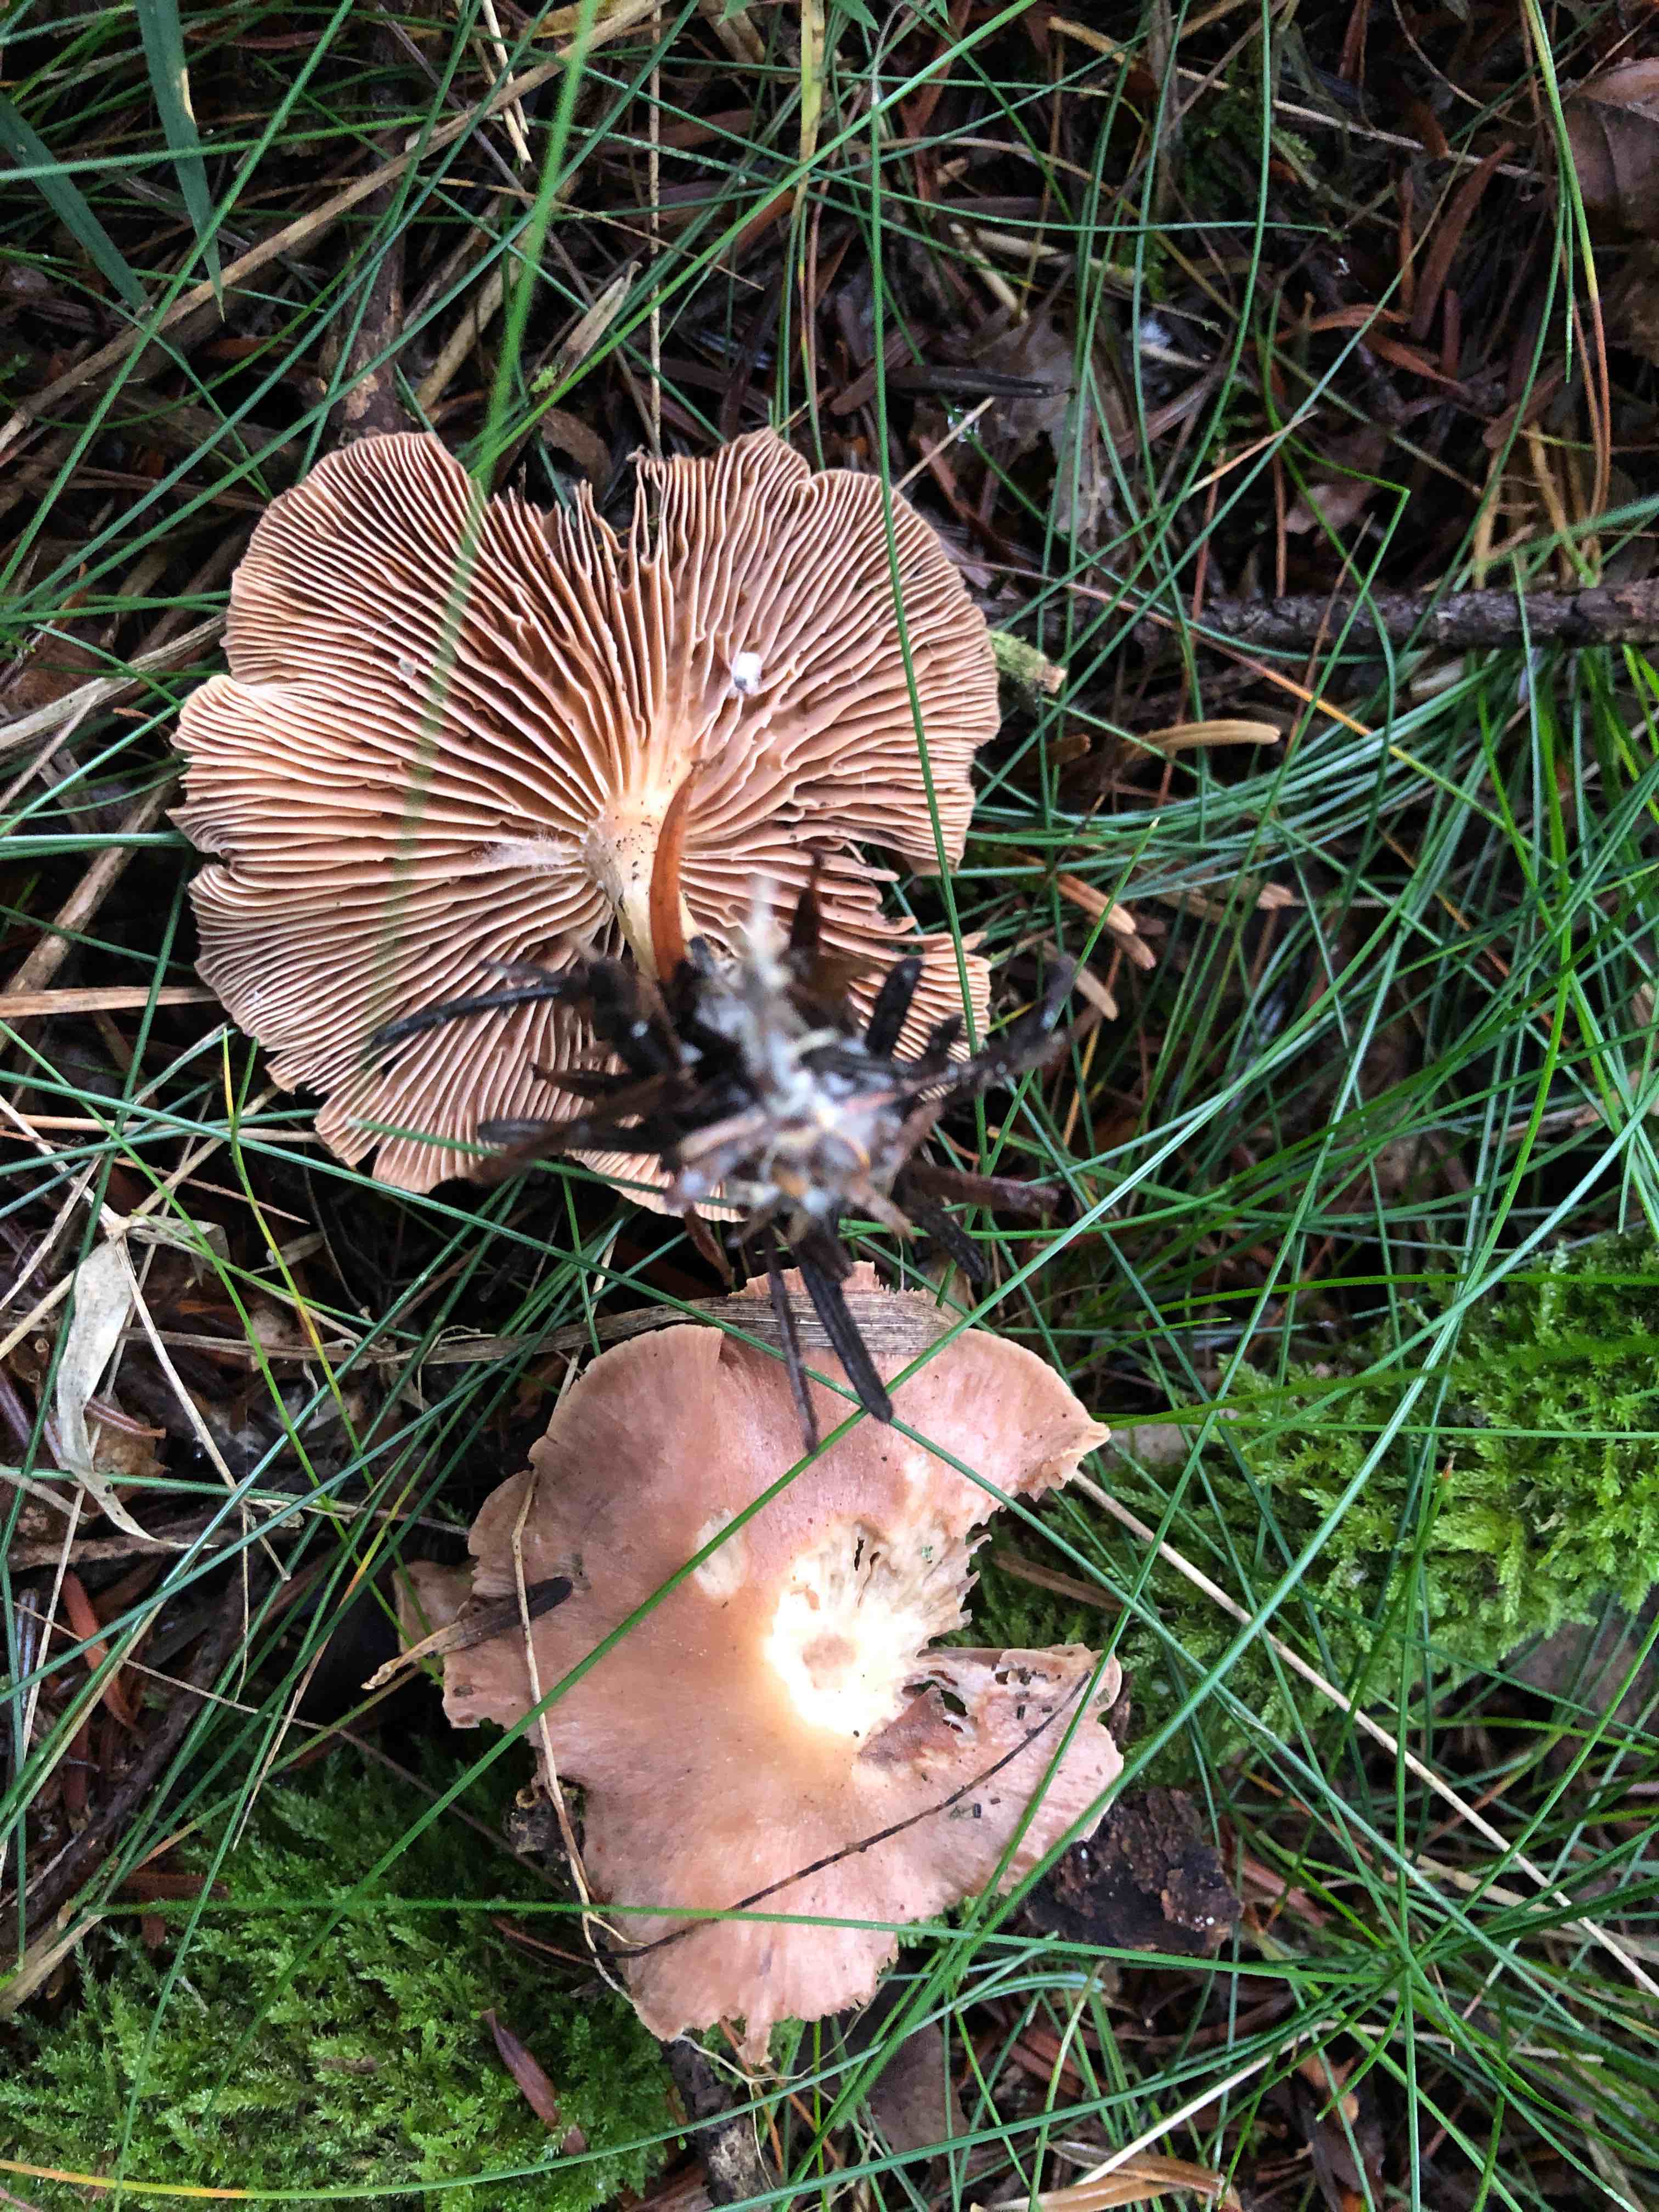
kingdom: Fungi
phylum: Basidiomycota
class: Agaricomycetes
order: Agaricales
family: Omphalotaceae
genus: Collybiopsis
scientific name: Collybiopsis peronata
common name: bestøvlet fladhat
